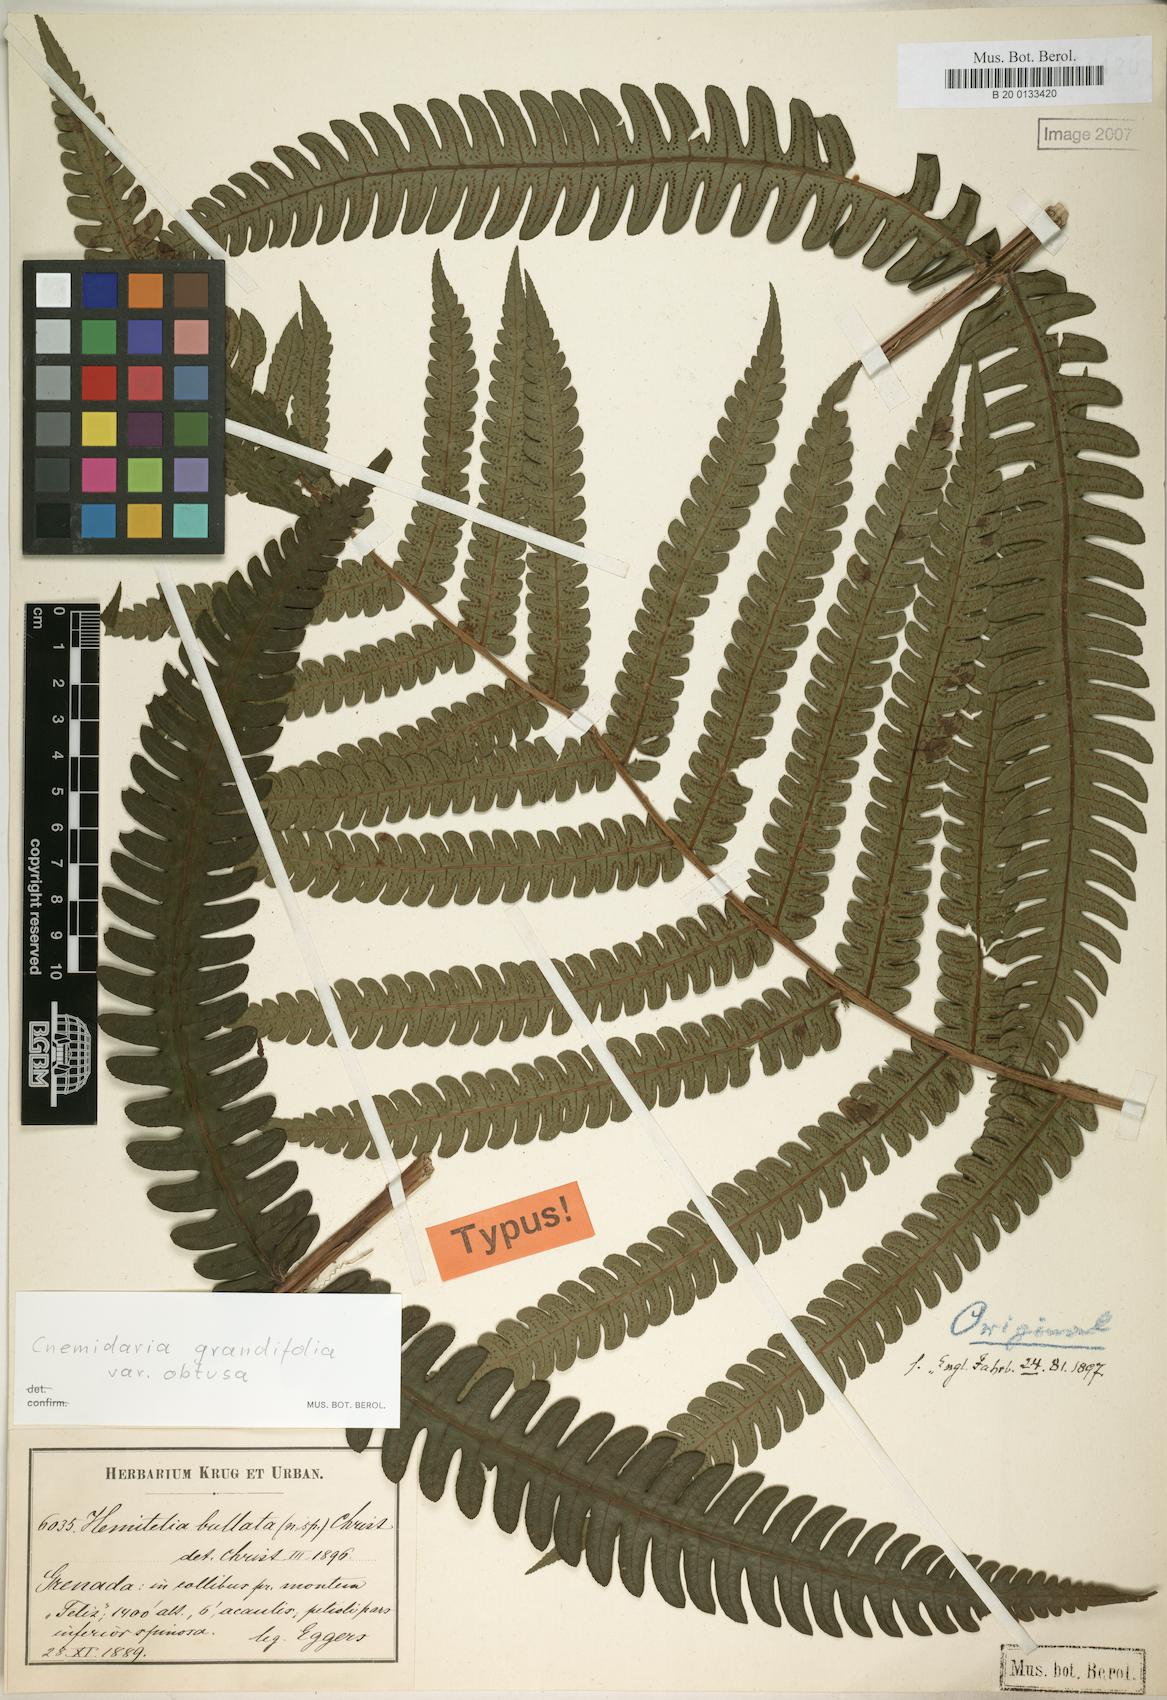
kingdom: Plantae
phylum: Tracheophyta
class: Polypodiopsida
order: Cyatheales
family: Cyatheaceae
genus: Cyathea
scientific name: Cyathea grandifolia
